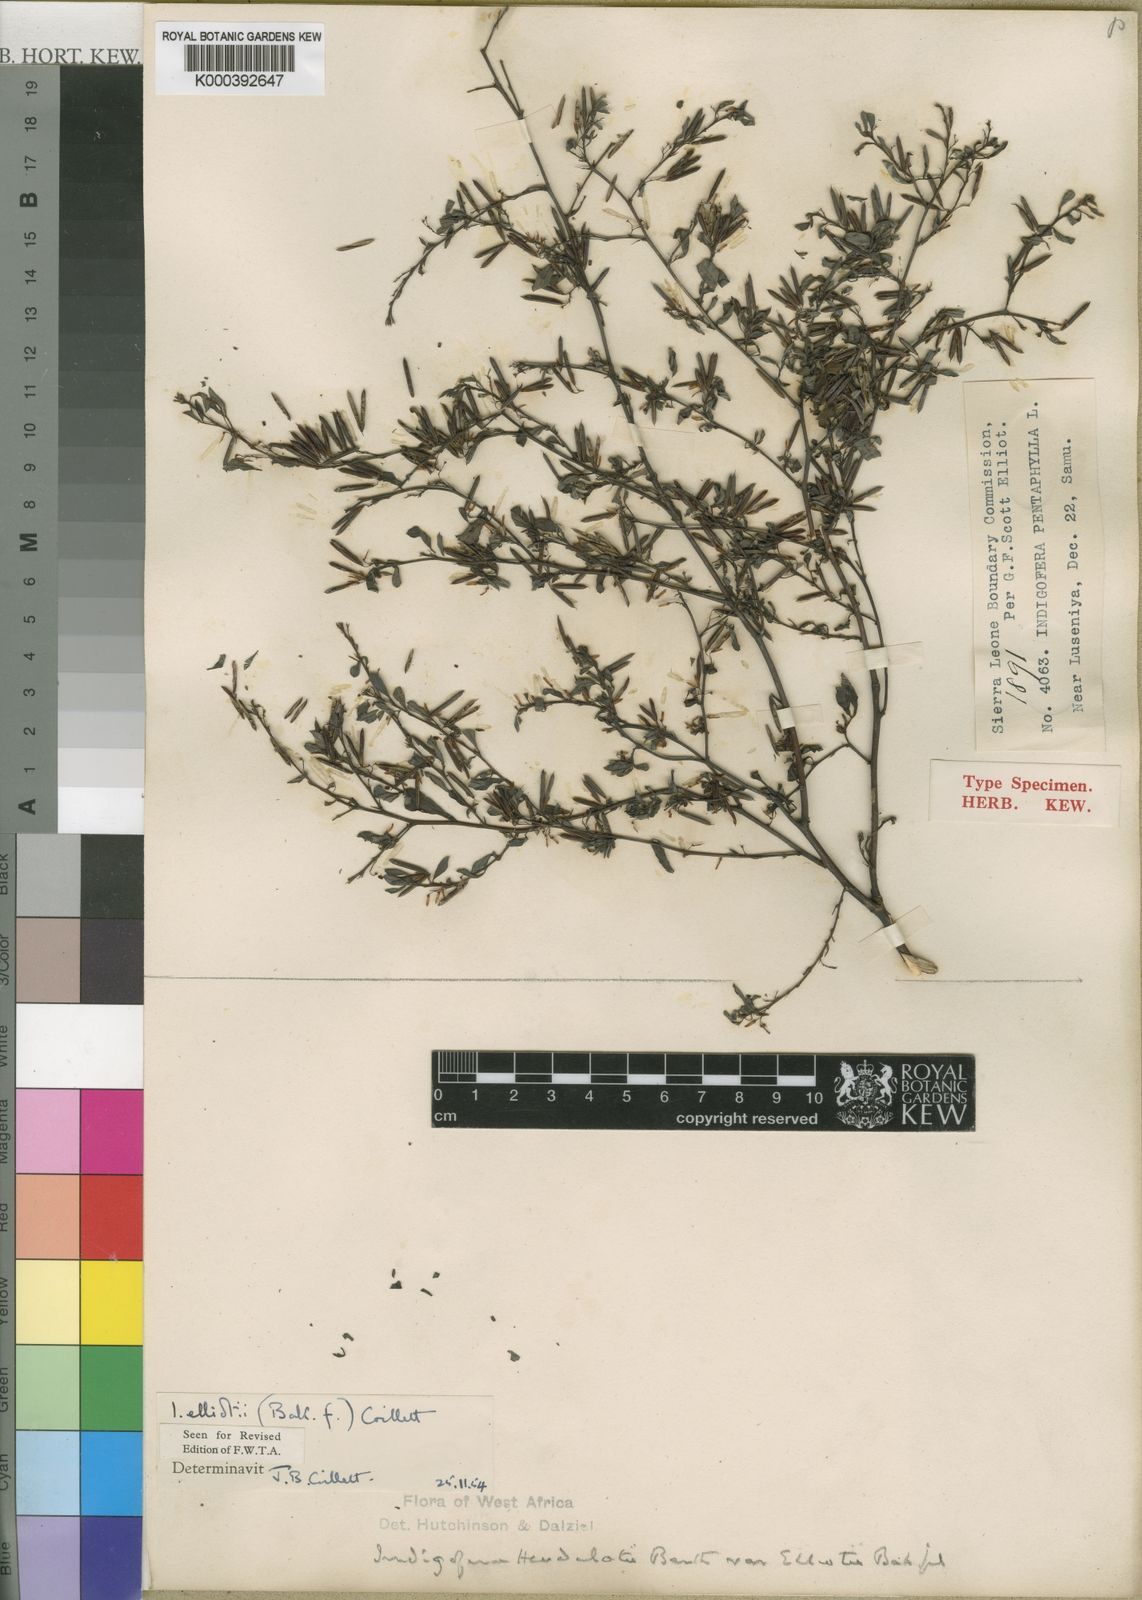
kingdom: Plantae
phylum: Tracheophyta
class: Magnoliopsida
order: Fabales
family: Fabaceae
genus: Indigofera
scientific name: Indigofera elliotii
